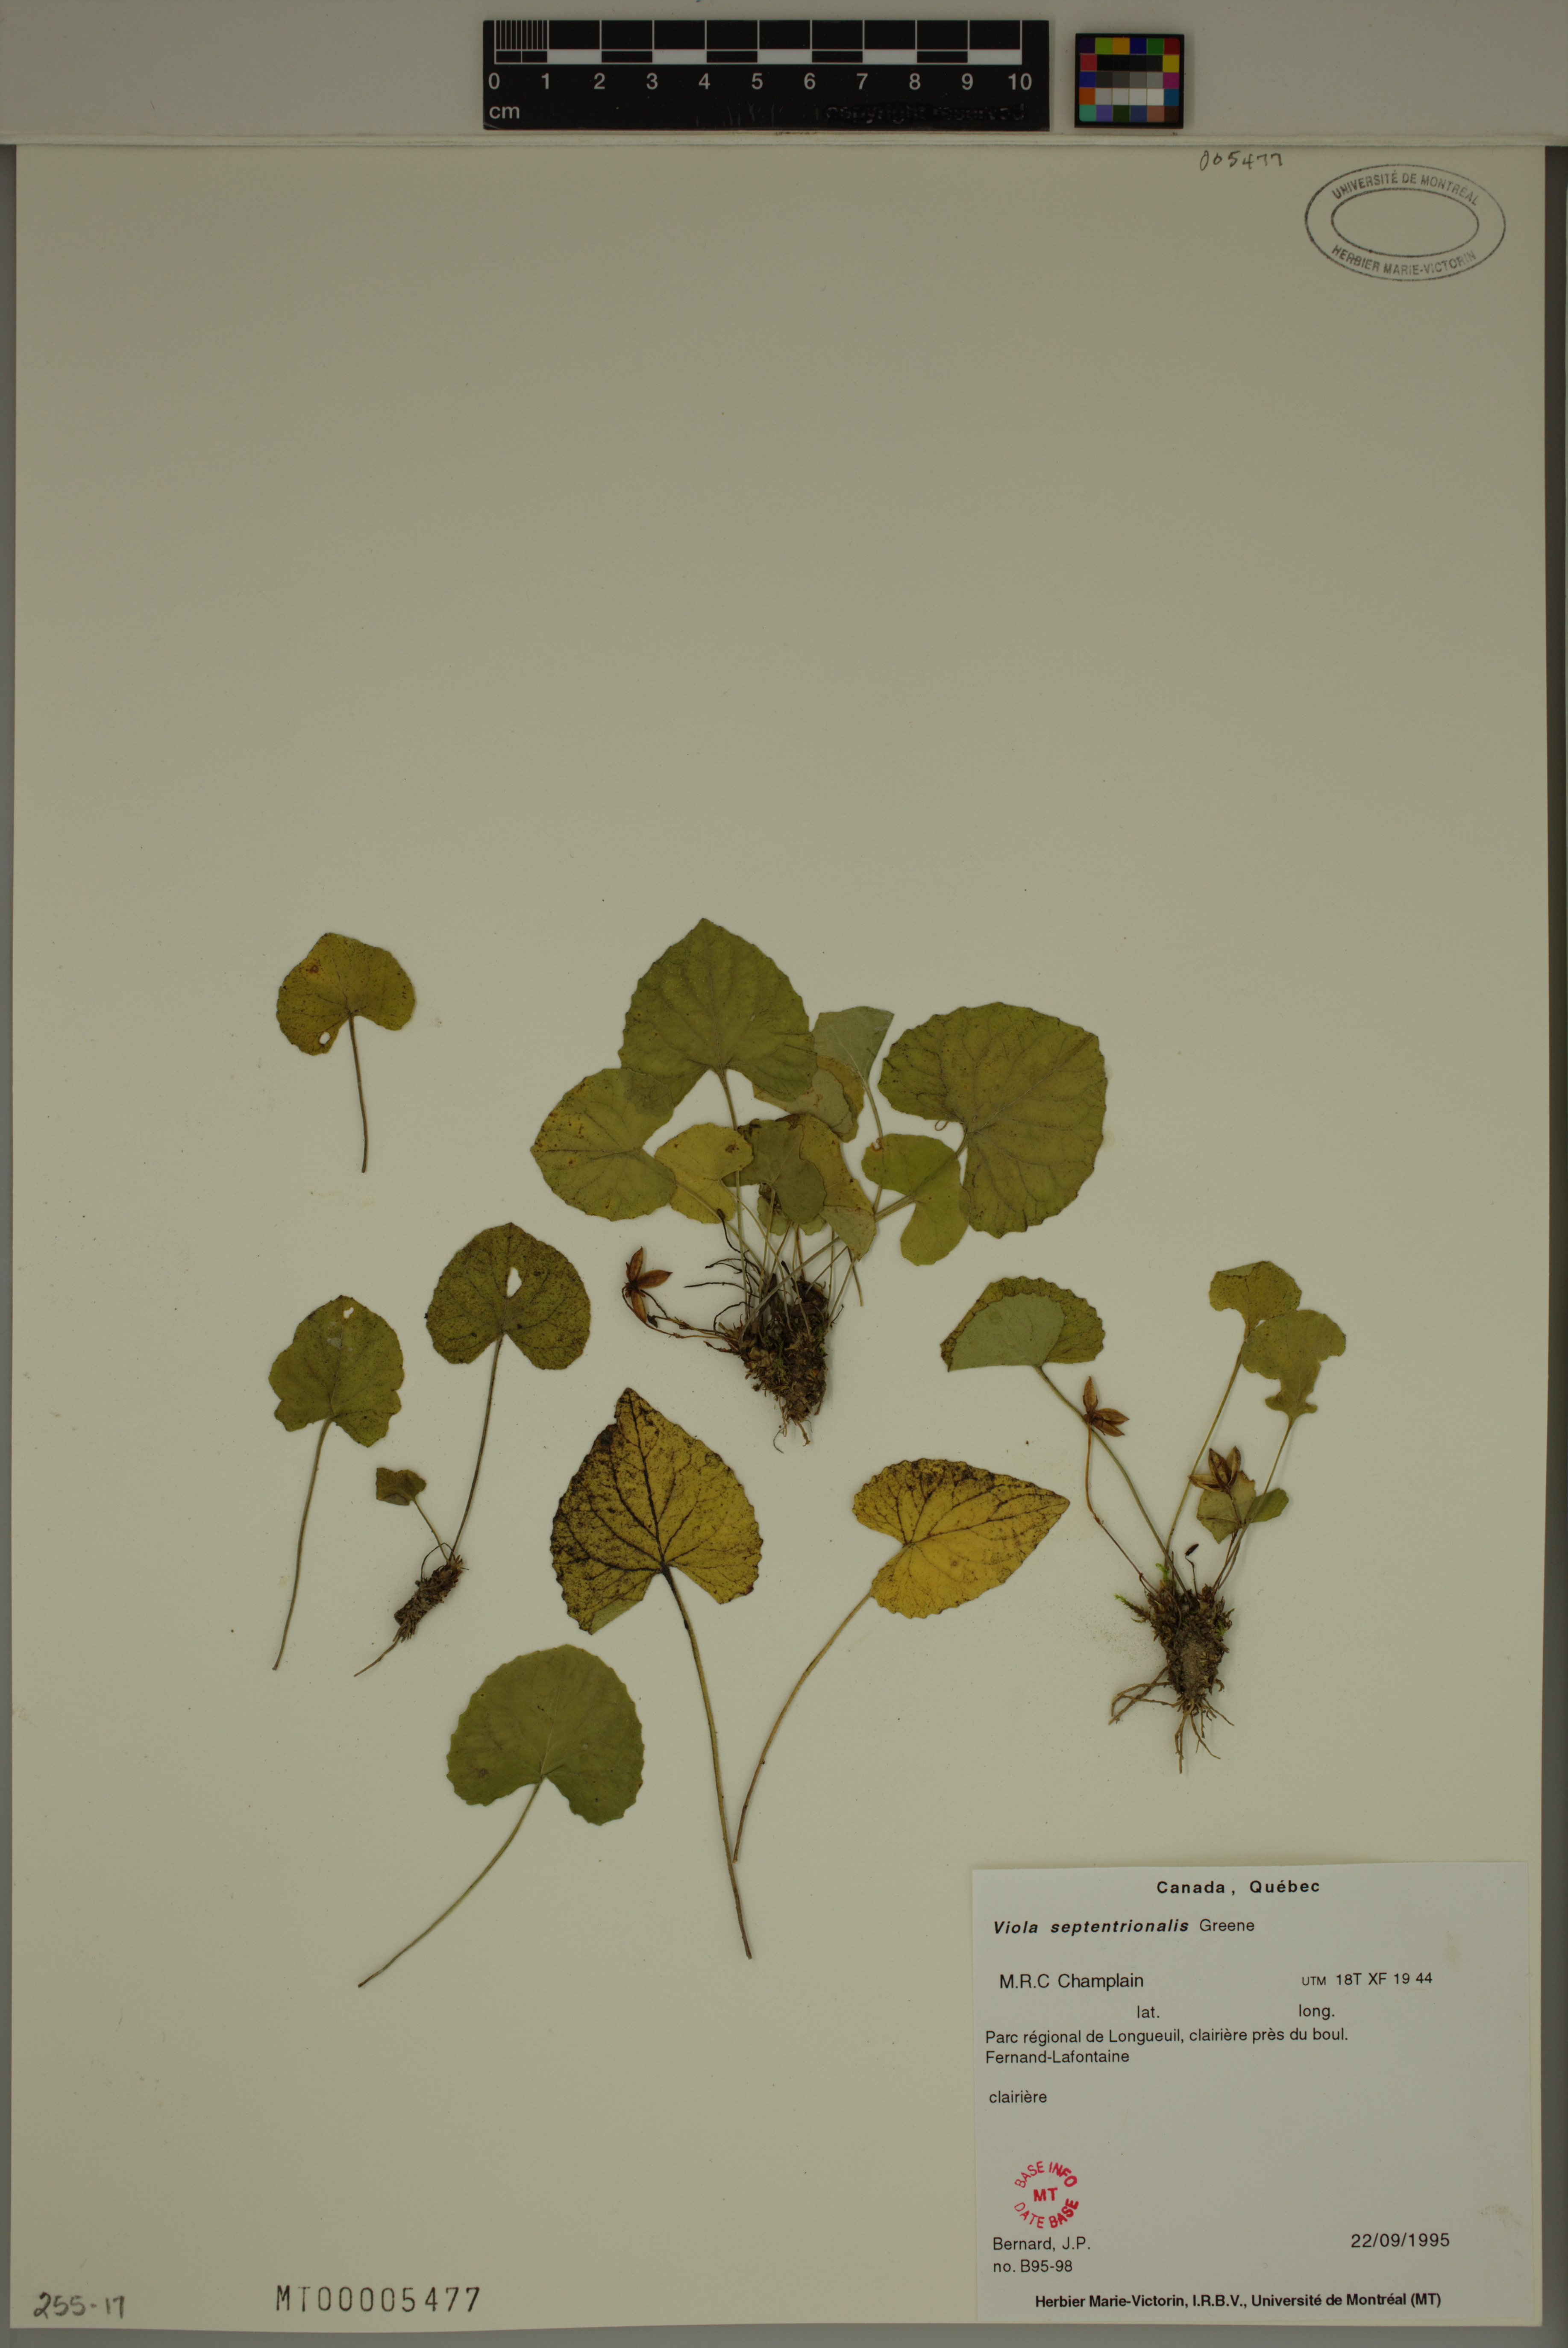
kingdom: Plantae
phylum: Tracheophyta
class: Magnoliopsida
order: Malpighiales
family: Violaceae
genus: Viola
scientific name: Viola sororia
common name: Dooryard violet
